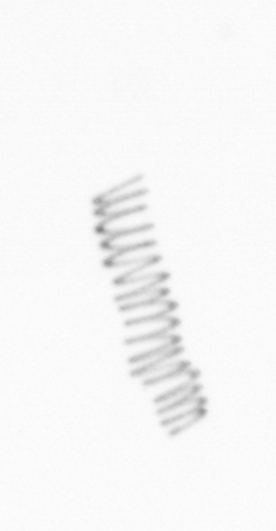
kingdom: Chromista
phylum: Ochrophyta
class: Bacillariophyceae
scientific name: Bacillariophyceae
